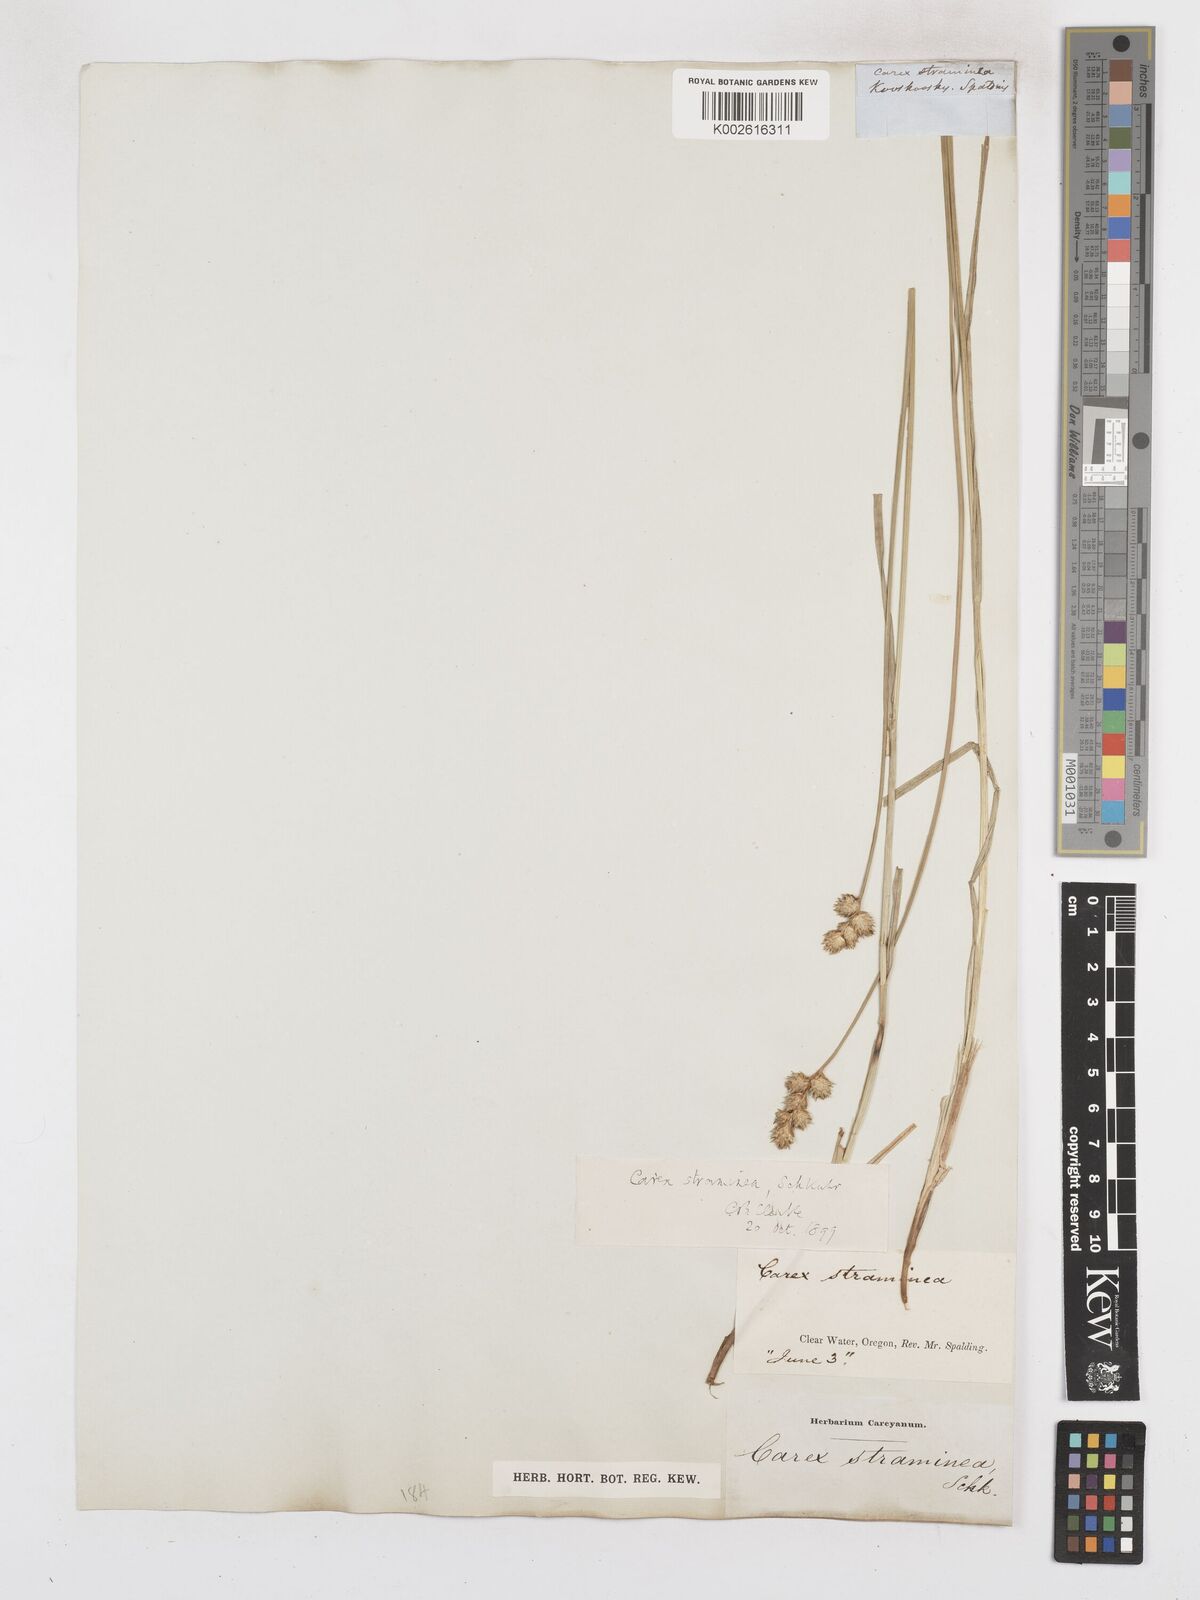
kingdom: Plantae
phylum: Tracheophyta
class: Liliopsida
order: Poales
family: Cyperaceae
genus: Carex
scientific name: Carex albolutescens
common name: Freenish white sedge
